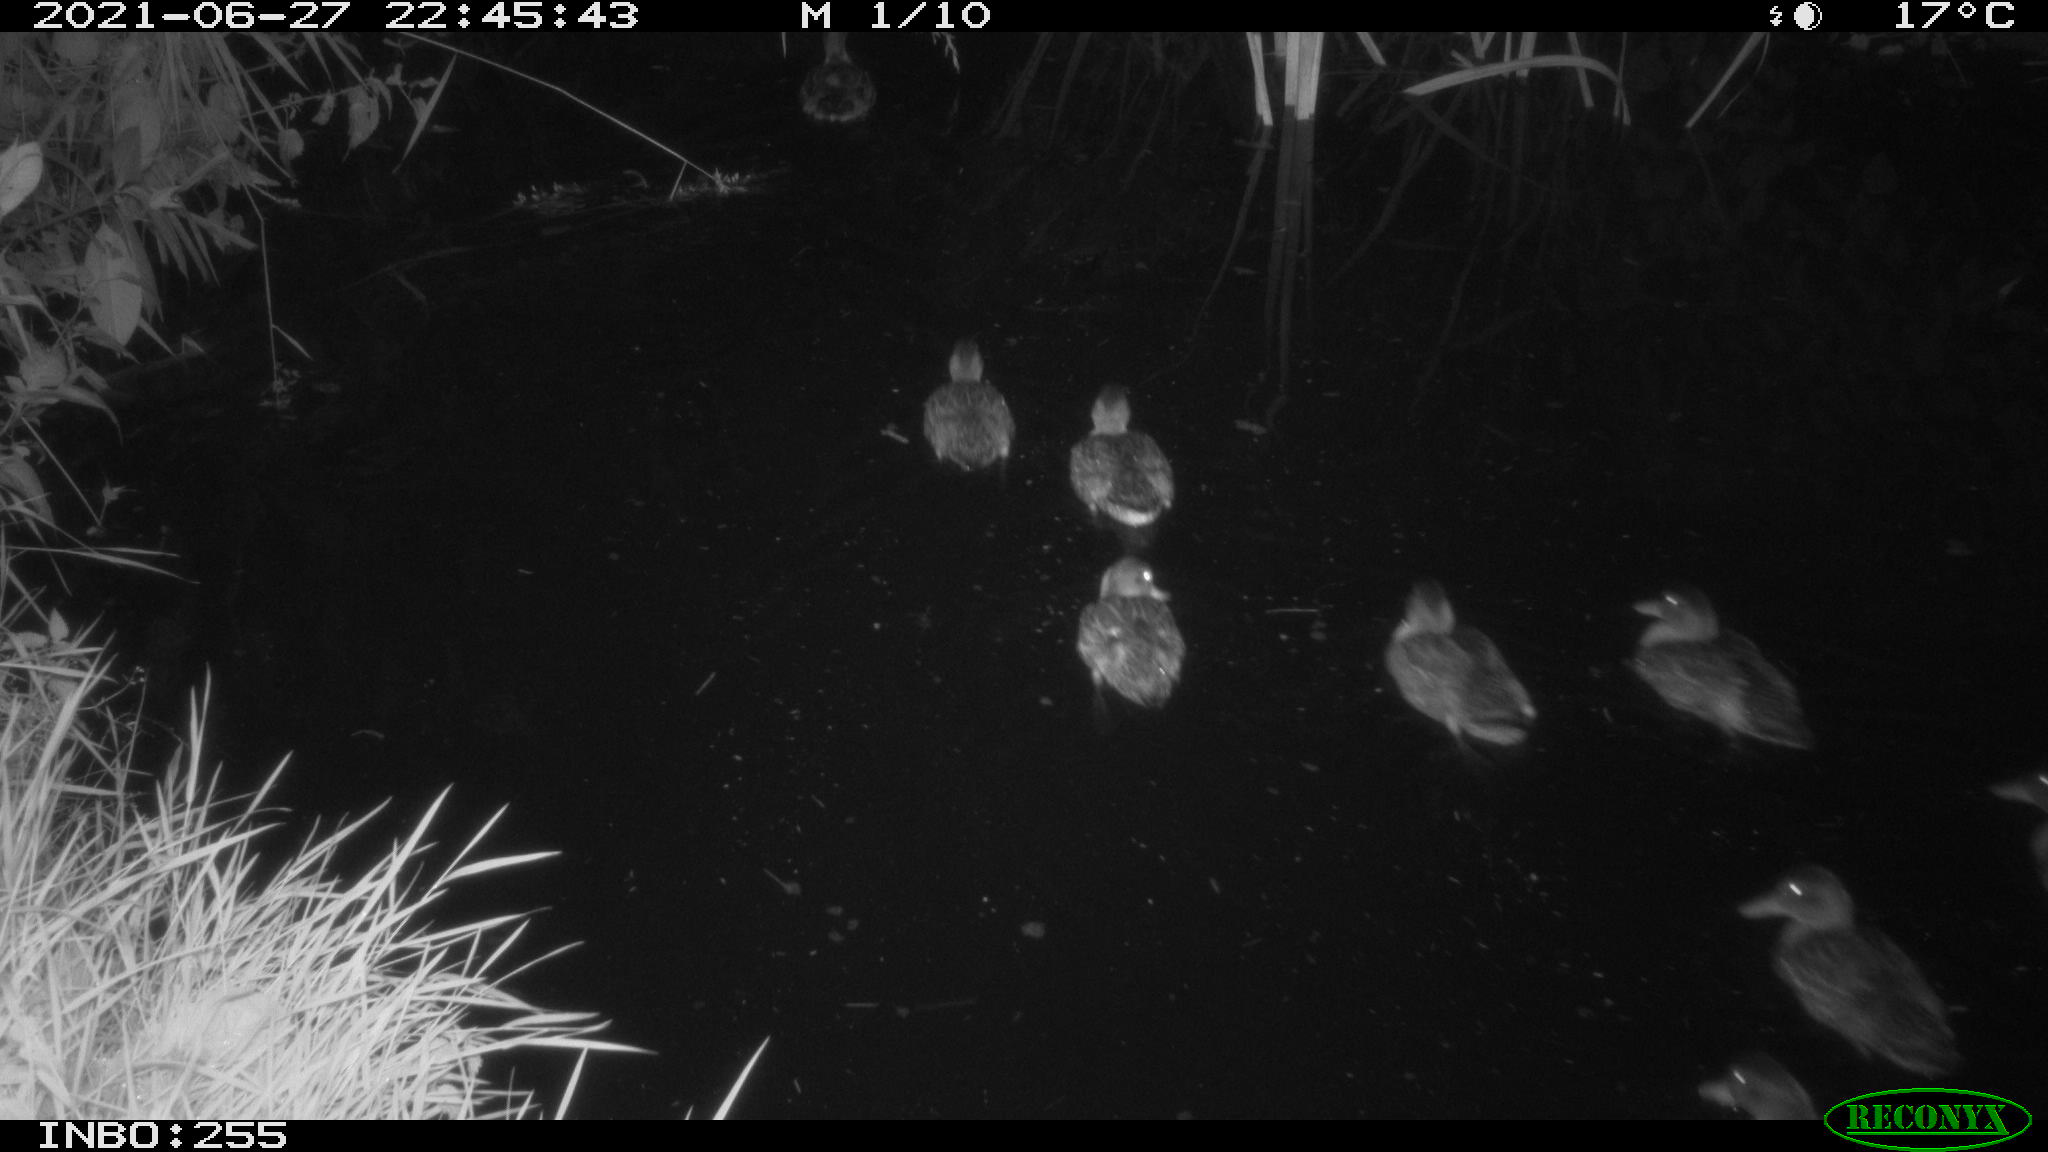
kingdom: Animalia
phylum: Chordata
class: Aves
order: Anseriformes
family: Anatidae
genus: Anas
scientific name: Anas
